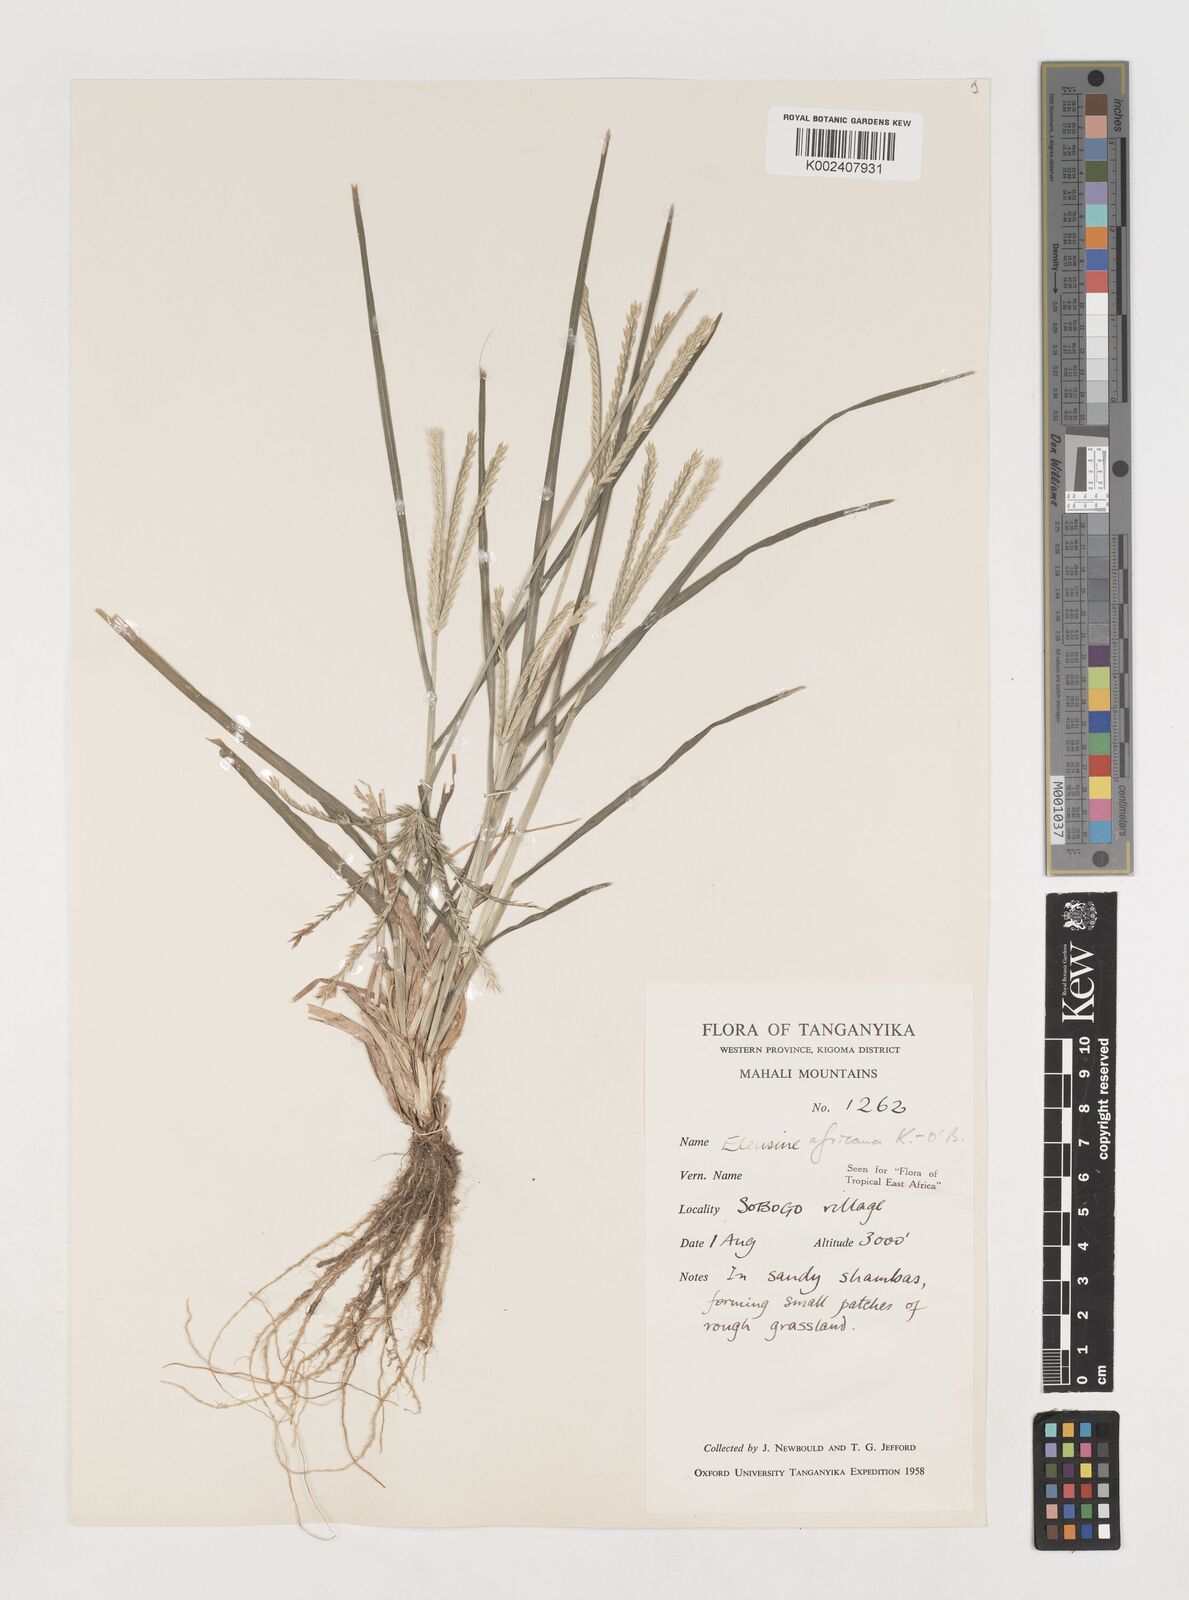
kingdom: Plantae
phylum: Tracheophyta
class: Liliopsida
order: Poales
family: Poaceae
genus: Eleusine
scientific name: Eleusine africana
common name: Wild african finger millet
